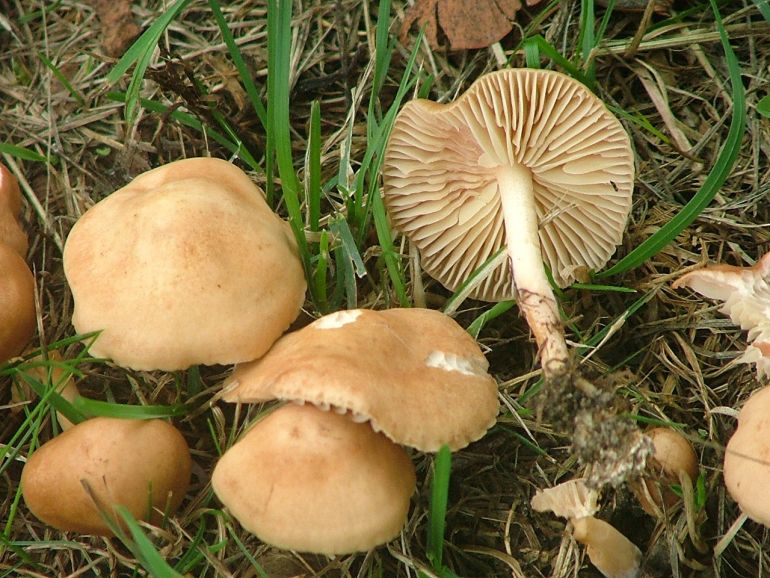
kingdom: Fungi
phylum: Basidiomycota
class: Agaricomycetes
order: Agaricales
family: Marasmiaceae
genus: Marasmius
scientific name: Marasmius oreades
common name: elledans-bruskhat
